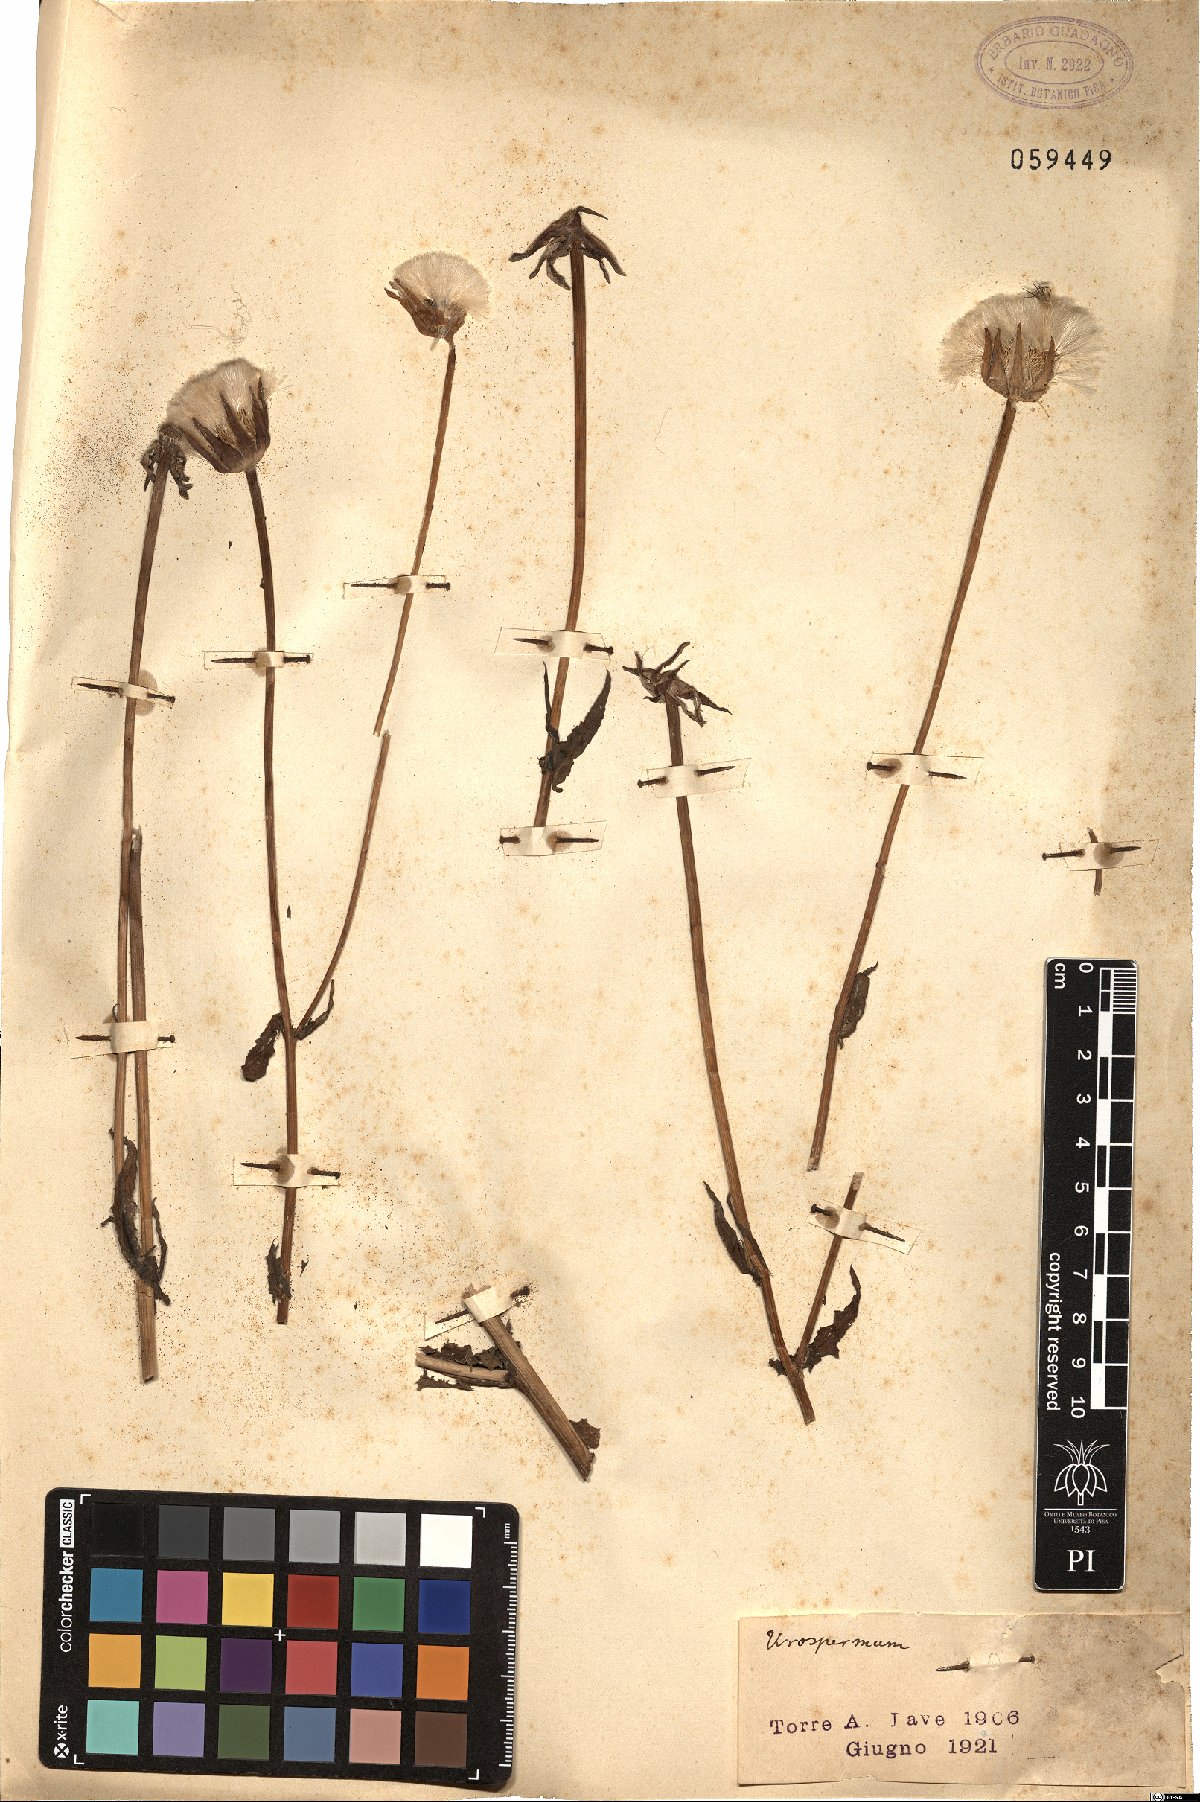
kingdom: Plantae
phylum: Tracheophyta
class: Magnoliopsida
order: Asterales
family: Asteraceae
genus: Urospermum
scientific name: Urospermum
